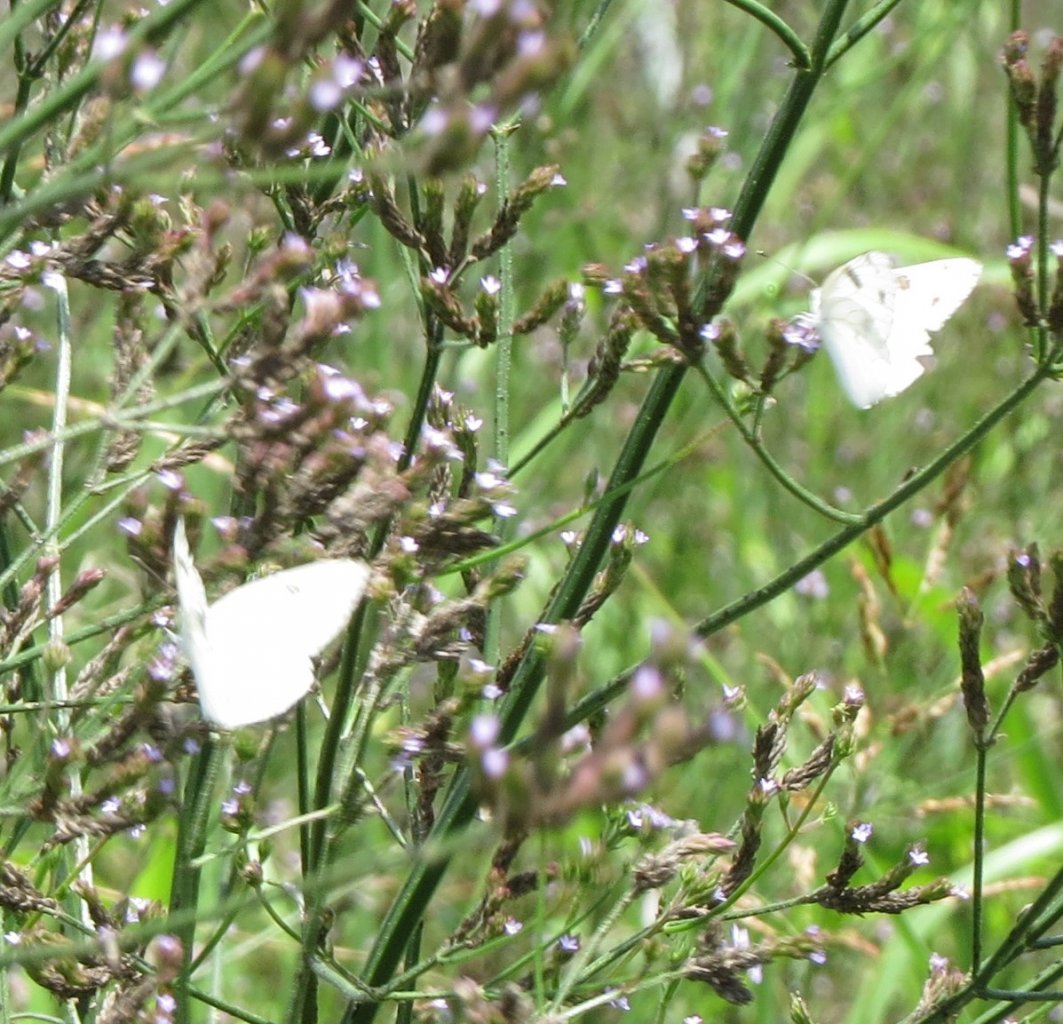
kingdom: Animalia
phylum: Arthropoda
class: Insecta
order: Lepidoptera
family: Pieridae
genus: Pontia
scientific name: Pontia protodice
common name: Checkered White
